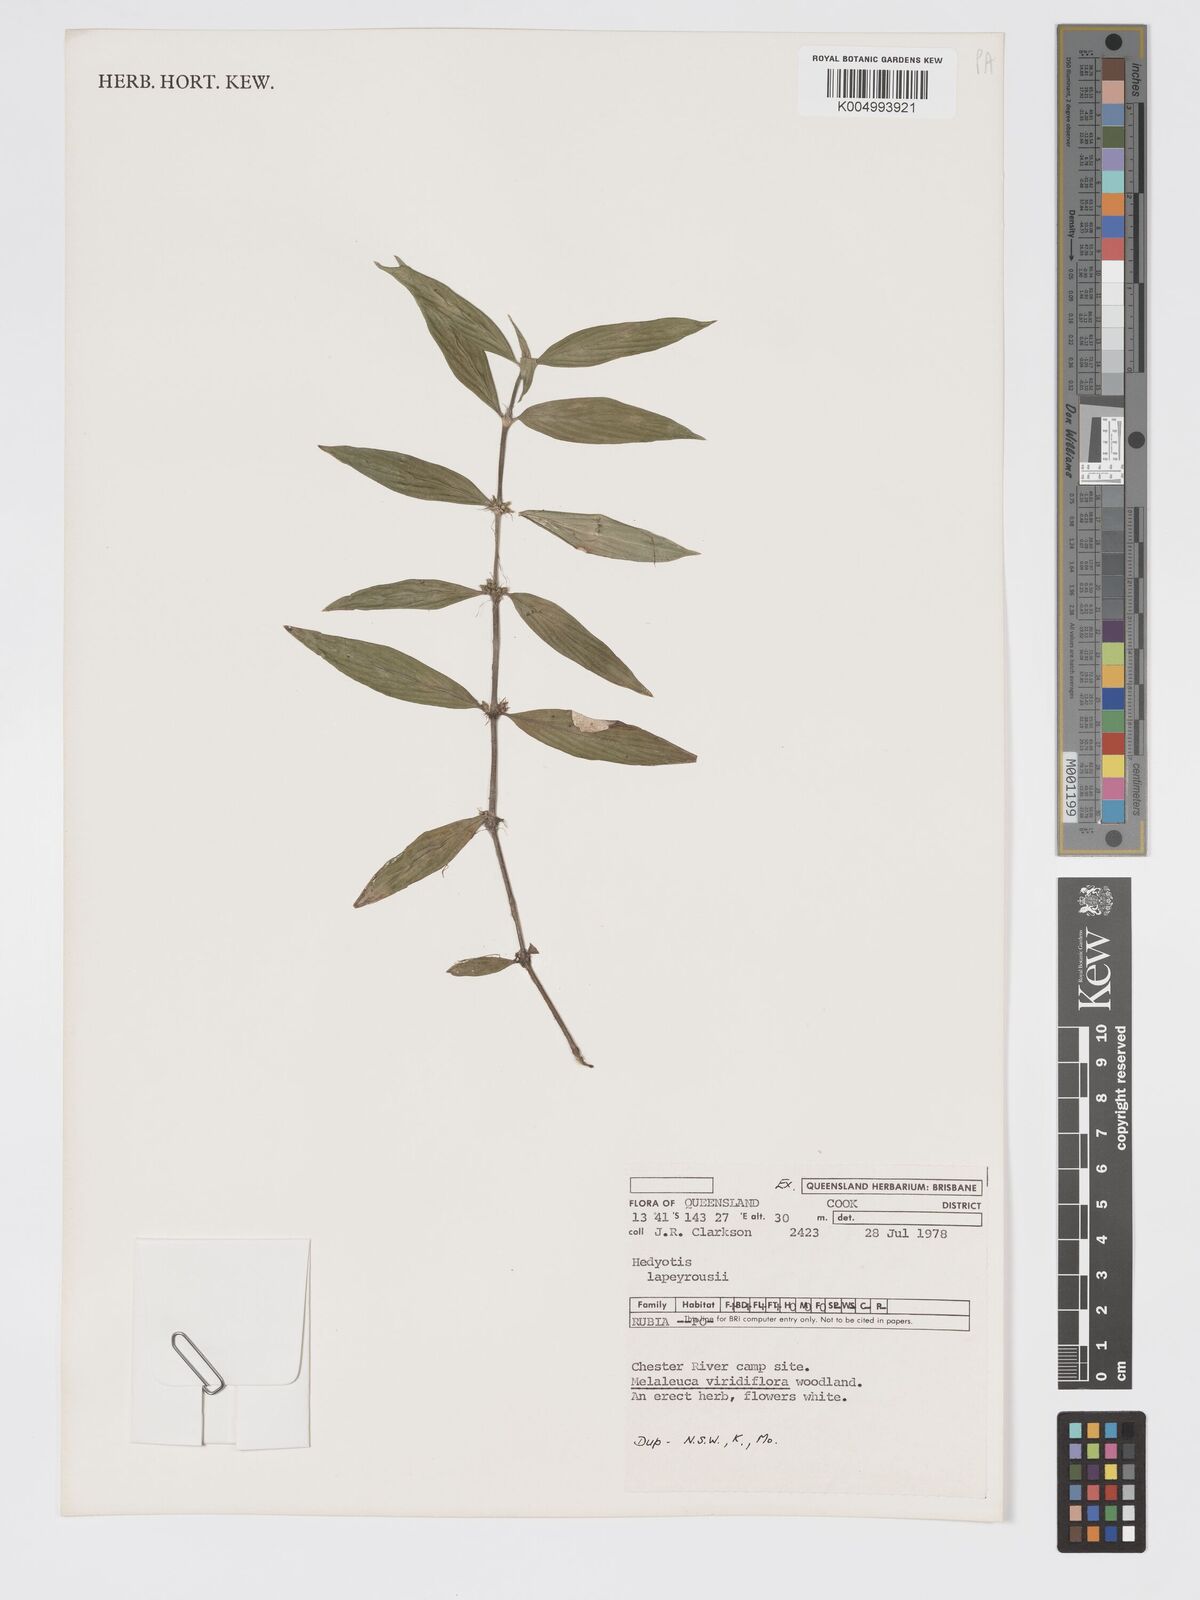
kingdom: Plantae
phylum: Tracheophyta
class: Magnoliopsida
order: Gentianales
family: Rubiaceae
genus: Exallage
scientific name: Exallage lapeyrousei
